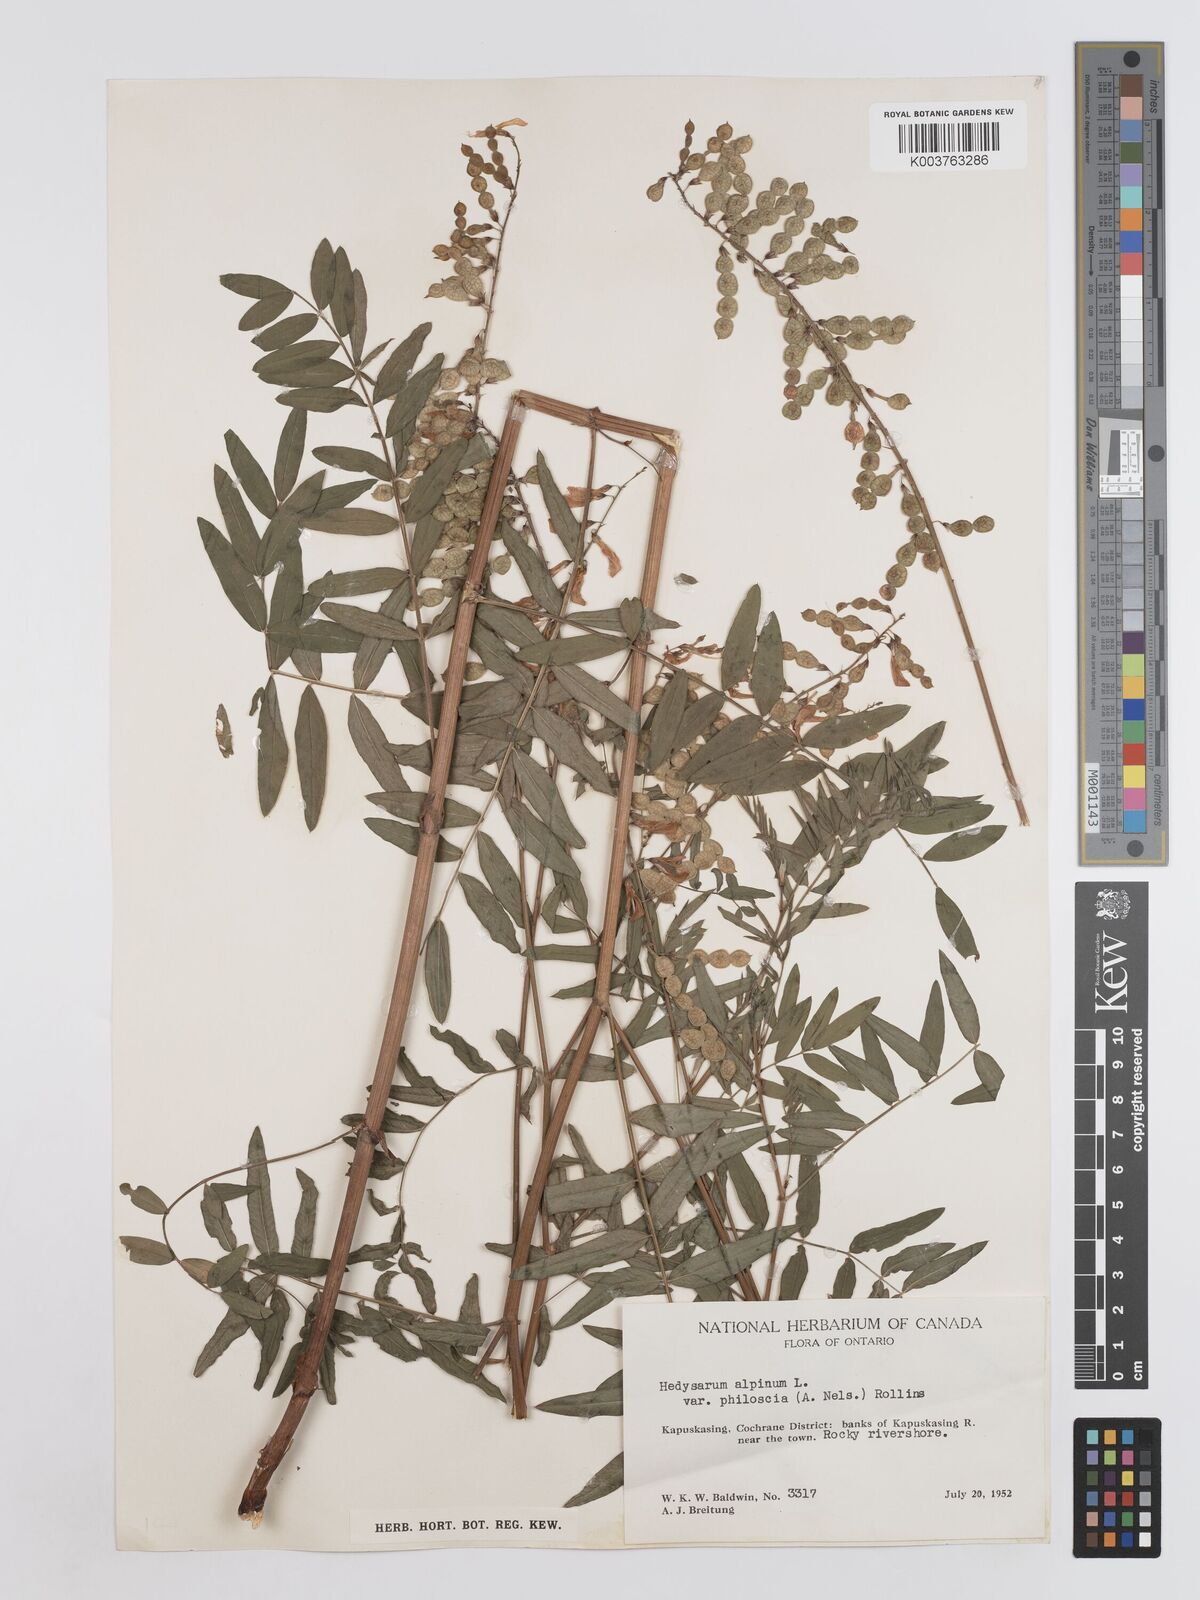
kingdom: Plantae
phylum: Tracheophyta
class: Magnoliopsida
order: Fabales
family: Fabaceae
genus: Hedysarum
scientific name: Hedysarum alpinum
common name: Alpine sweet-vetch
